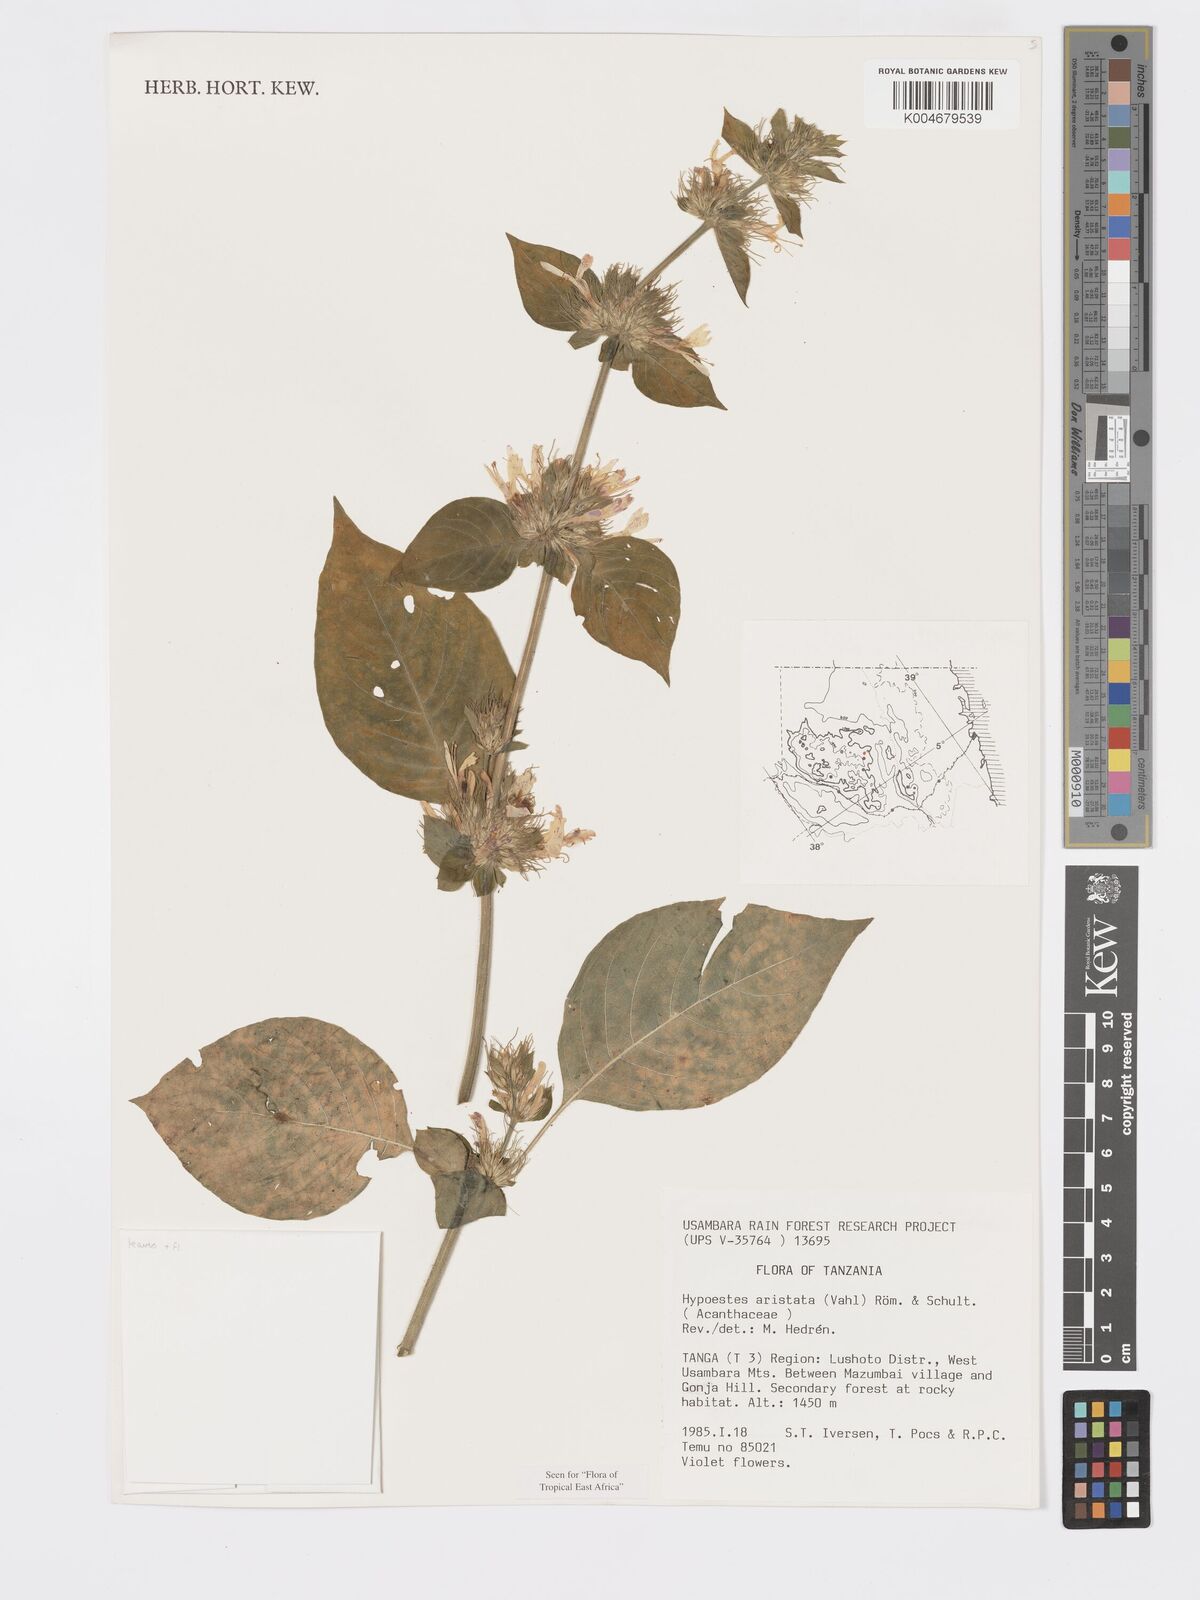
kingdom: Plantae
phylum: Tracheophyta
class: Magnoliopsida
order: Lamiales
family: Acanthaceae
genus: Hypoestes
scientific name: Hypoestes aristata
